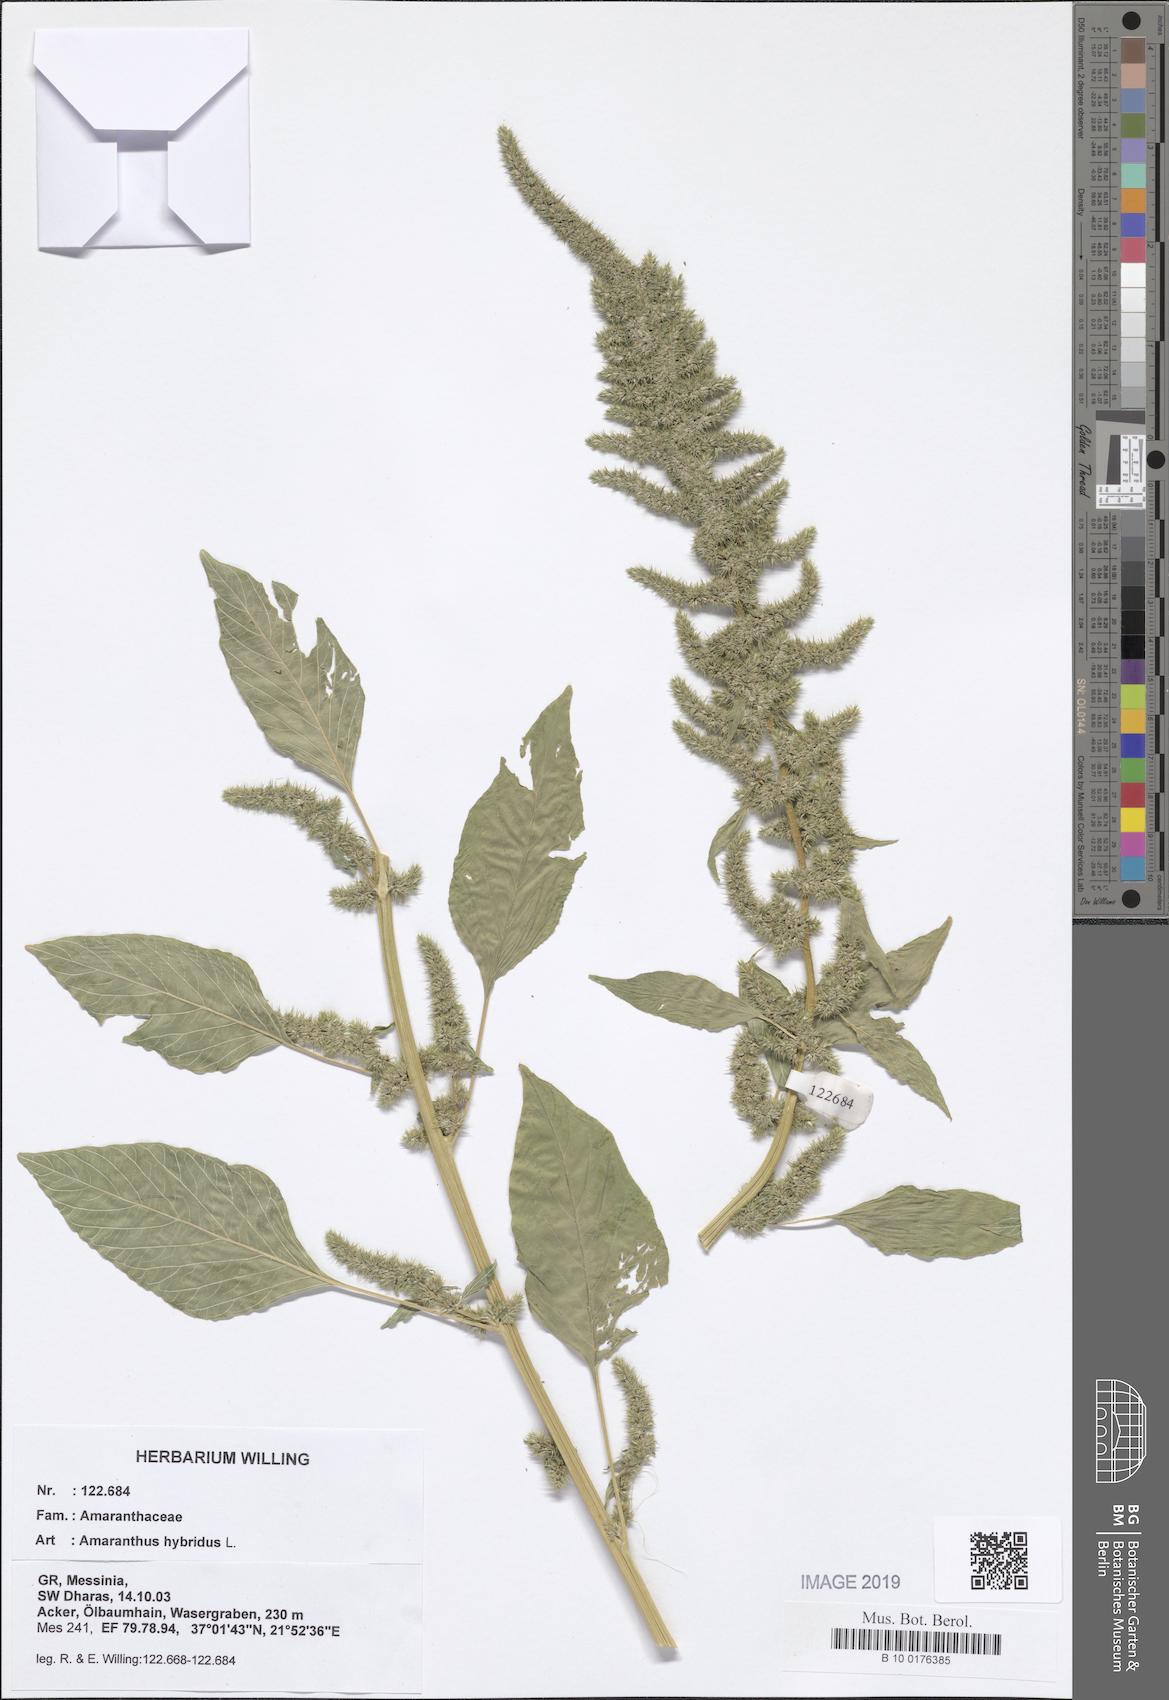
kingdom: Plantae
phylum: Tracheophyta
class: Magnoliopsida
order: Caryophyllales
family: Amaranthaceae
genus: Amaranthus
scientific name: Amaranthus hybridus
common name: Green amaranth
